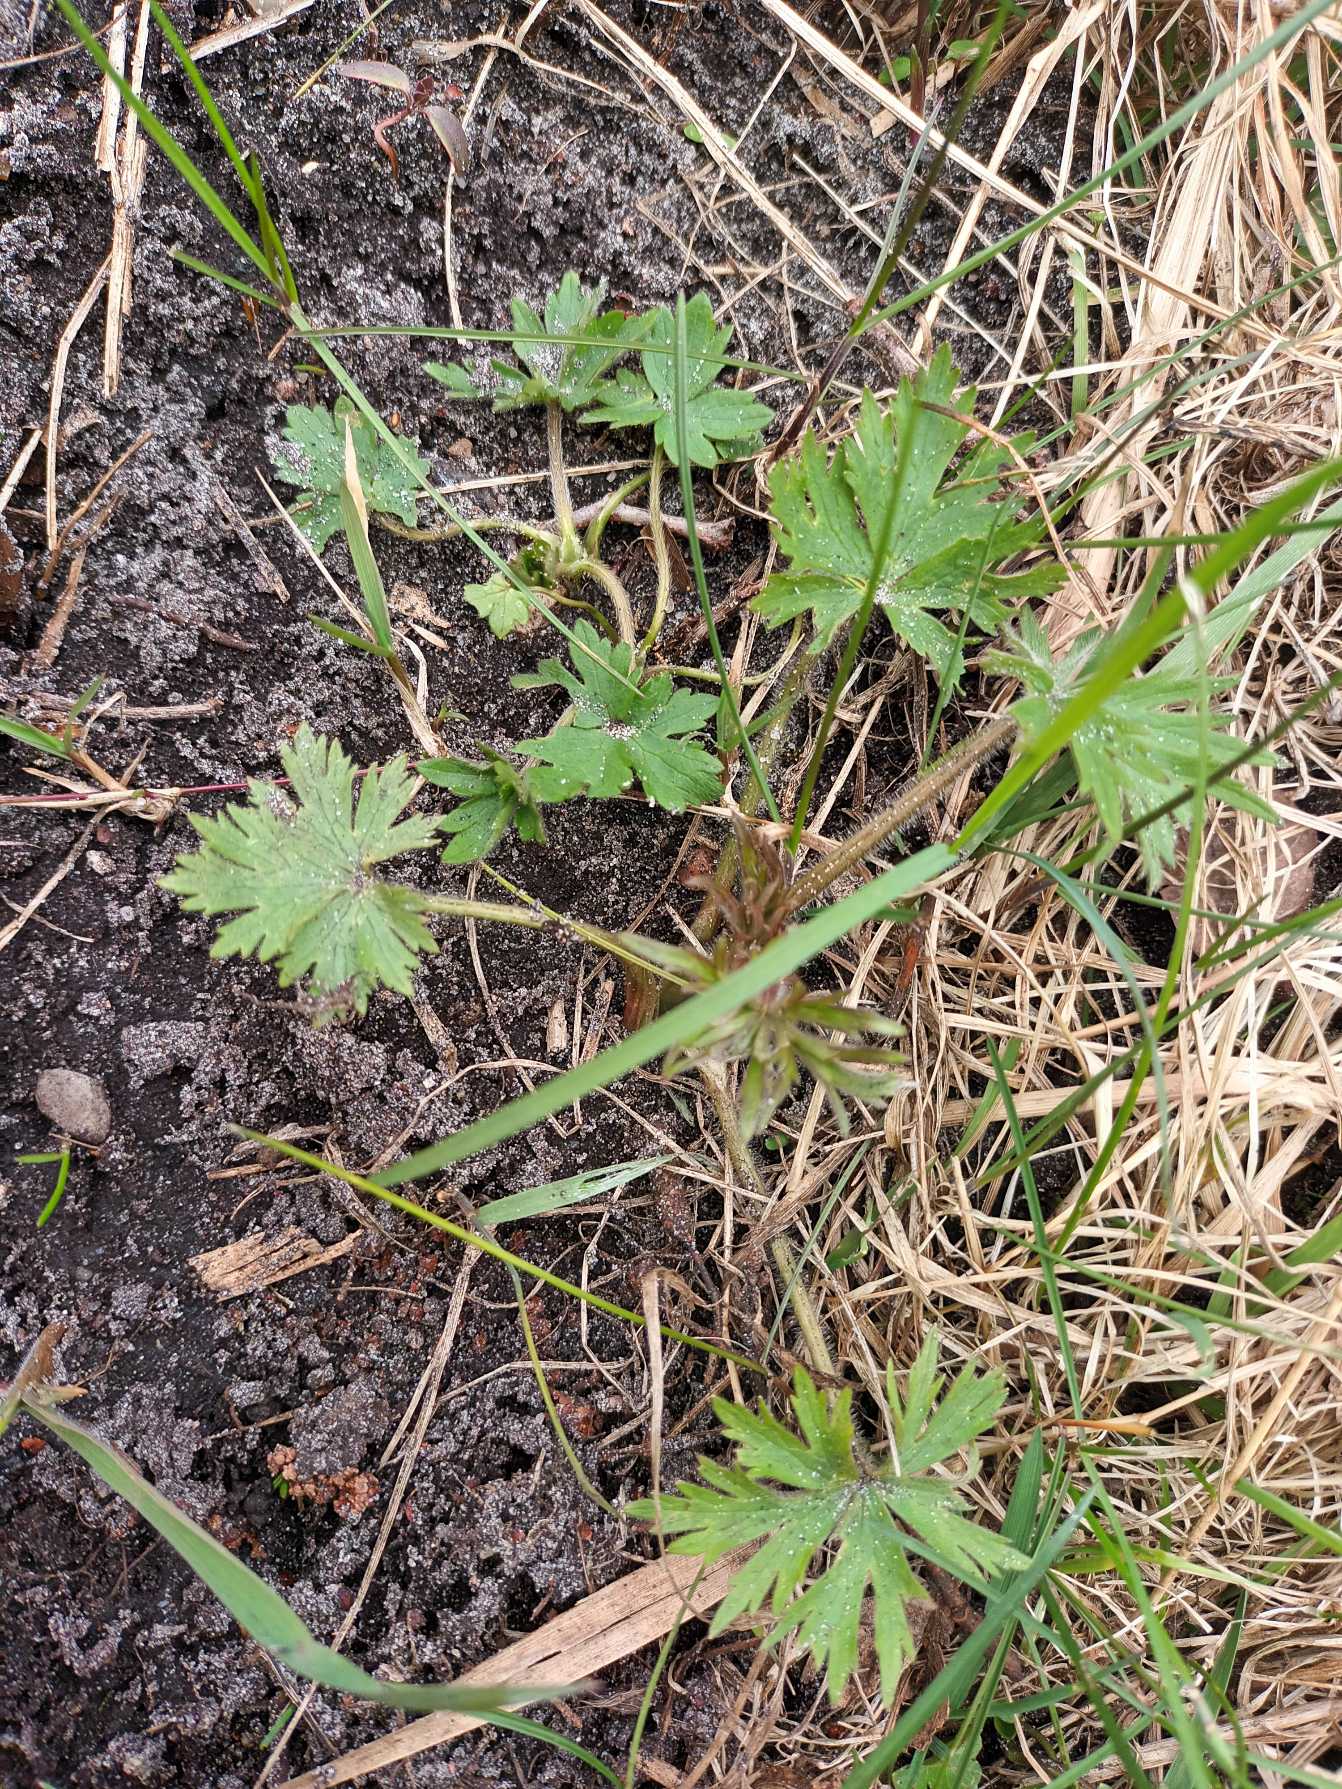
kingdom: Plantae
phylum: Tracheophyta
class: Magnoliopsida
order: Ranunculales
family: Ranunculaceae
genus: Ranunculus
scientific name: Ranunculus acris
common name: Bidende ranunkel
